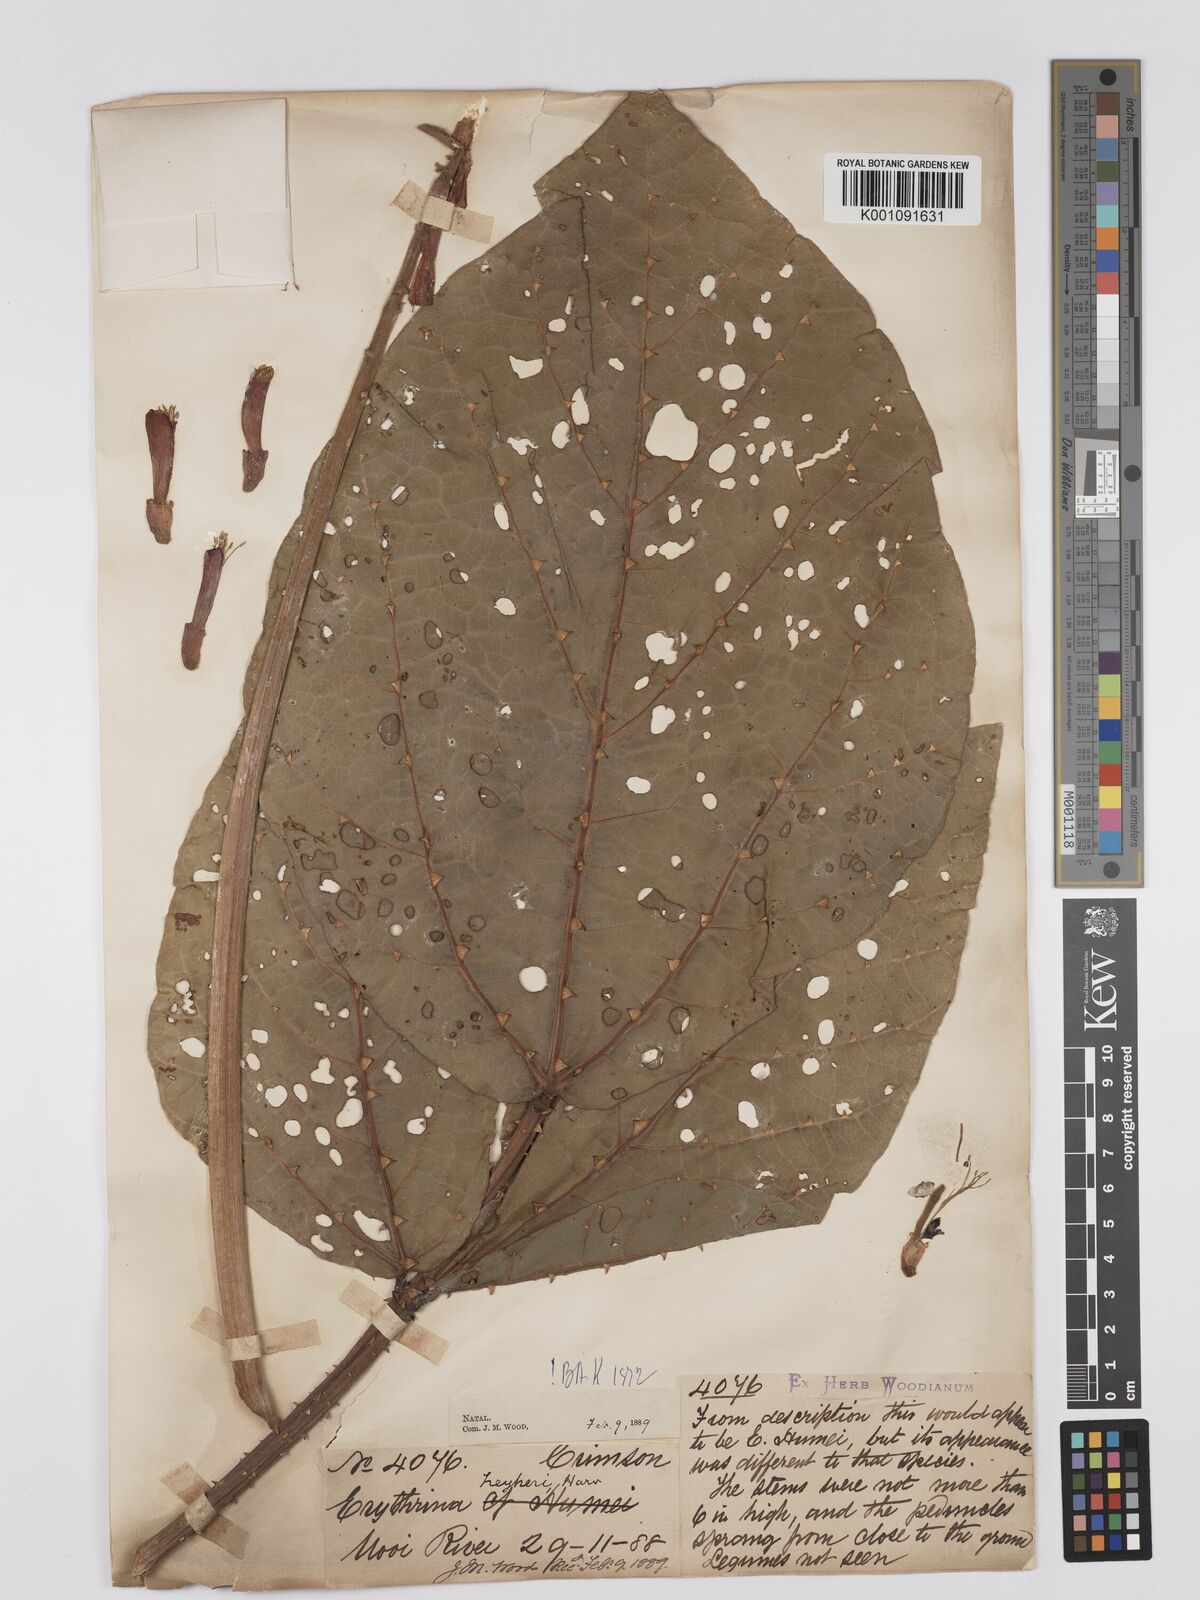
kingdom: Plantae
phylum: Tracheophyta
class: Magnoliopsida
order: Fabales
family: Fabaceae
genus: Erythrina
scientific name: Erythrina zeyheri
